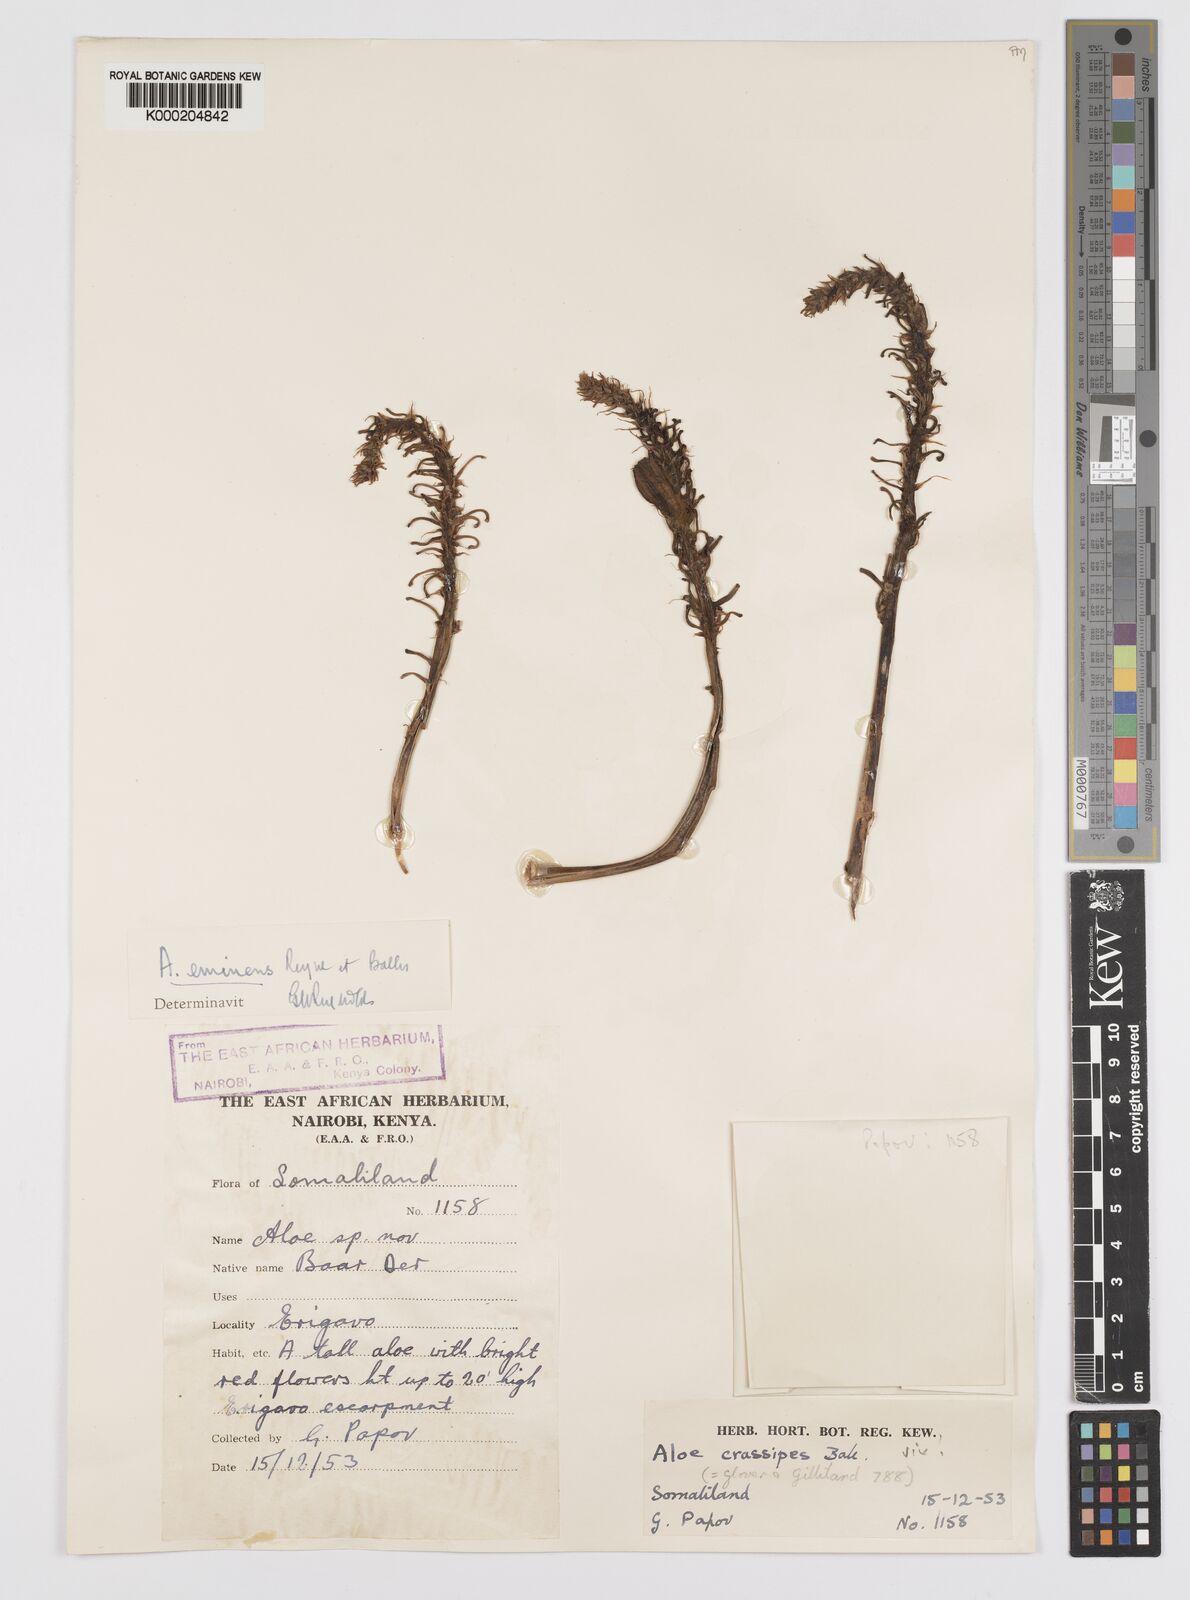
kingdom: Plantae
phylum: Tracheophyta
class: Liliopsida
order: Asparagales
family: Asphodelaceae
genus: Aloidendron
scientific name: Aloidendron eminens
